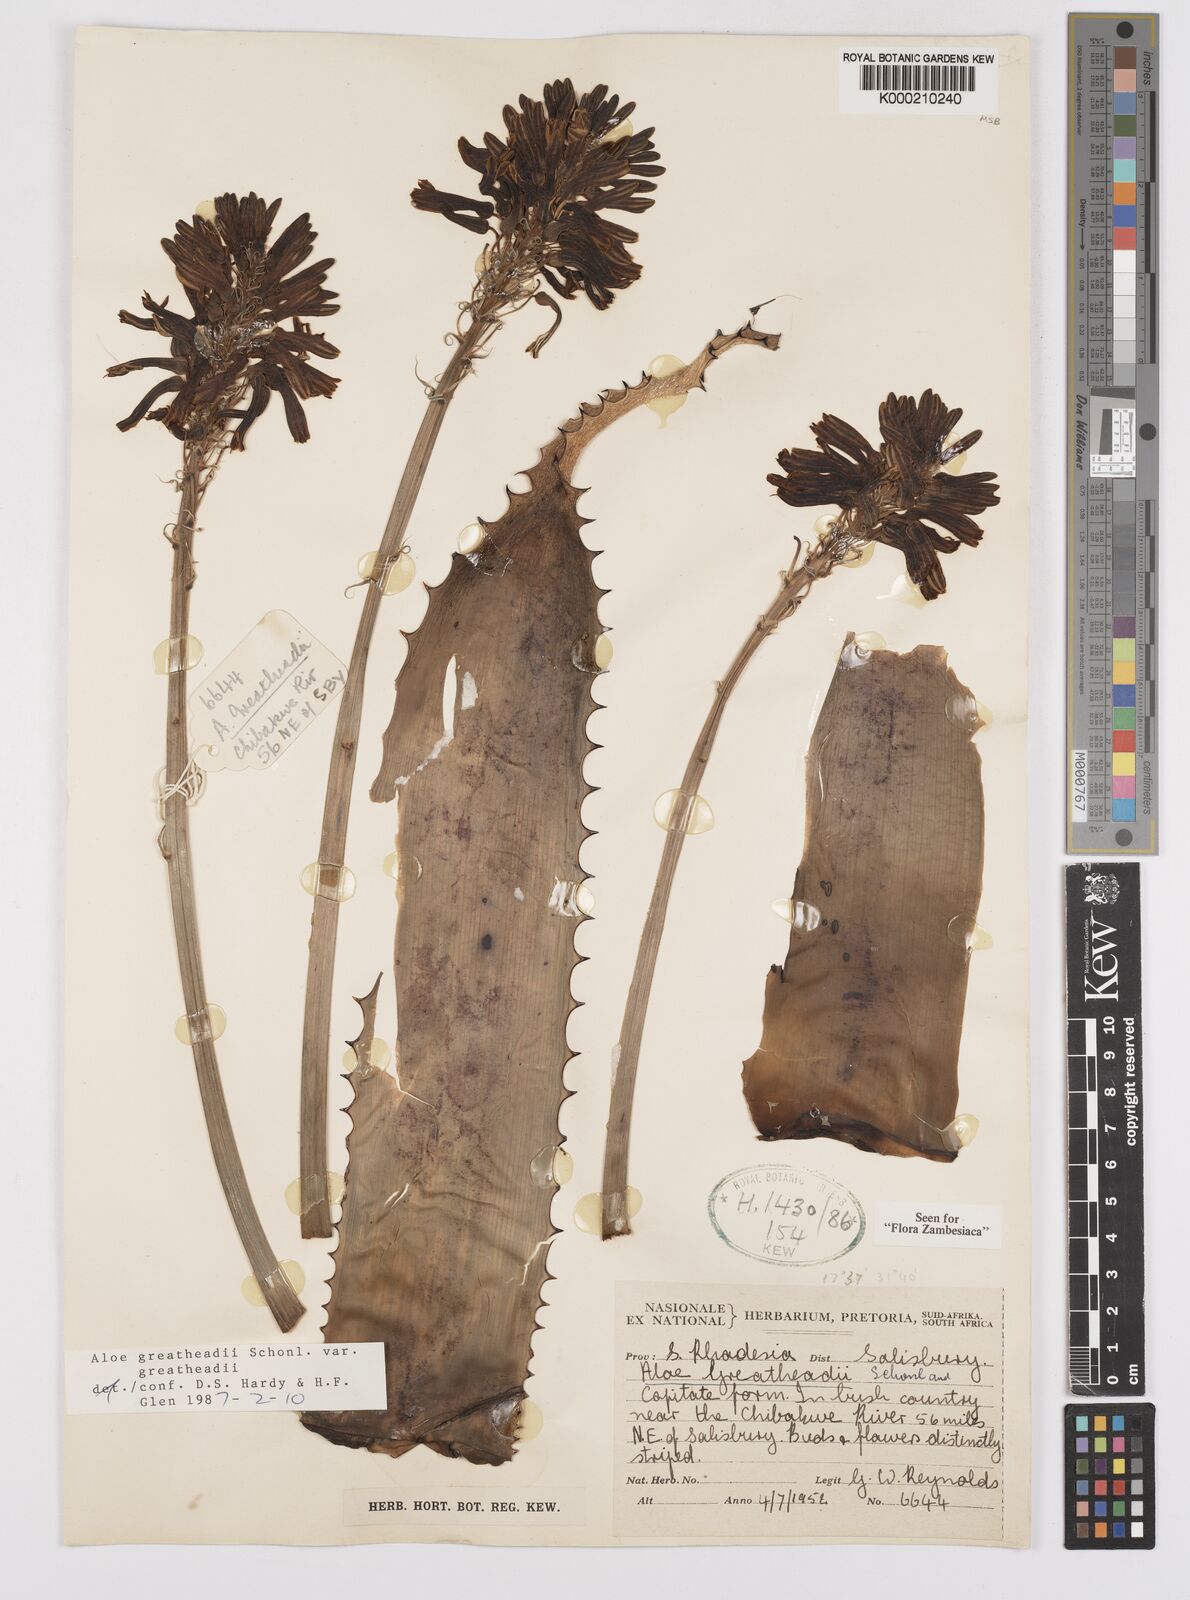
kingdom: Plantae
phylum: Tracheophyta
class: Liliopsida
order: Asparagales
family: Asphodelaceae
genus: Aloe
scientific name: Aloe greatheadii
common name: Greathead's aloe
